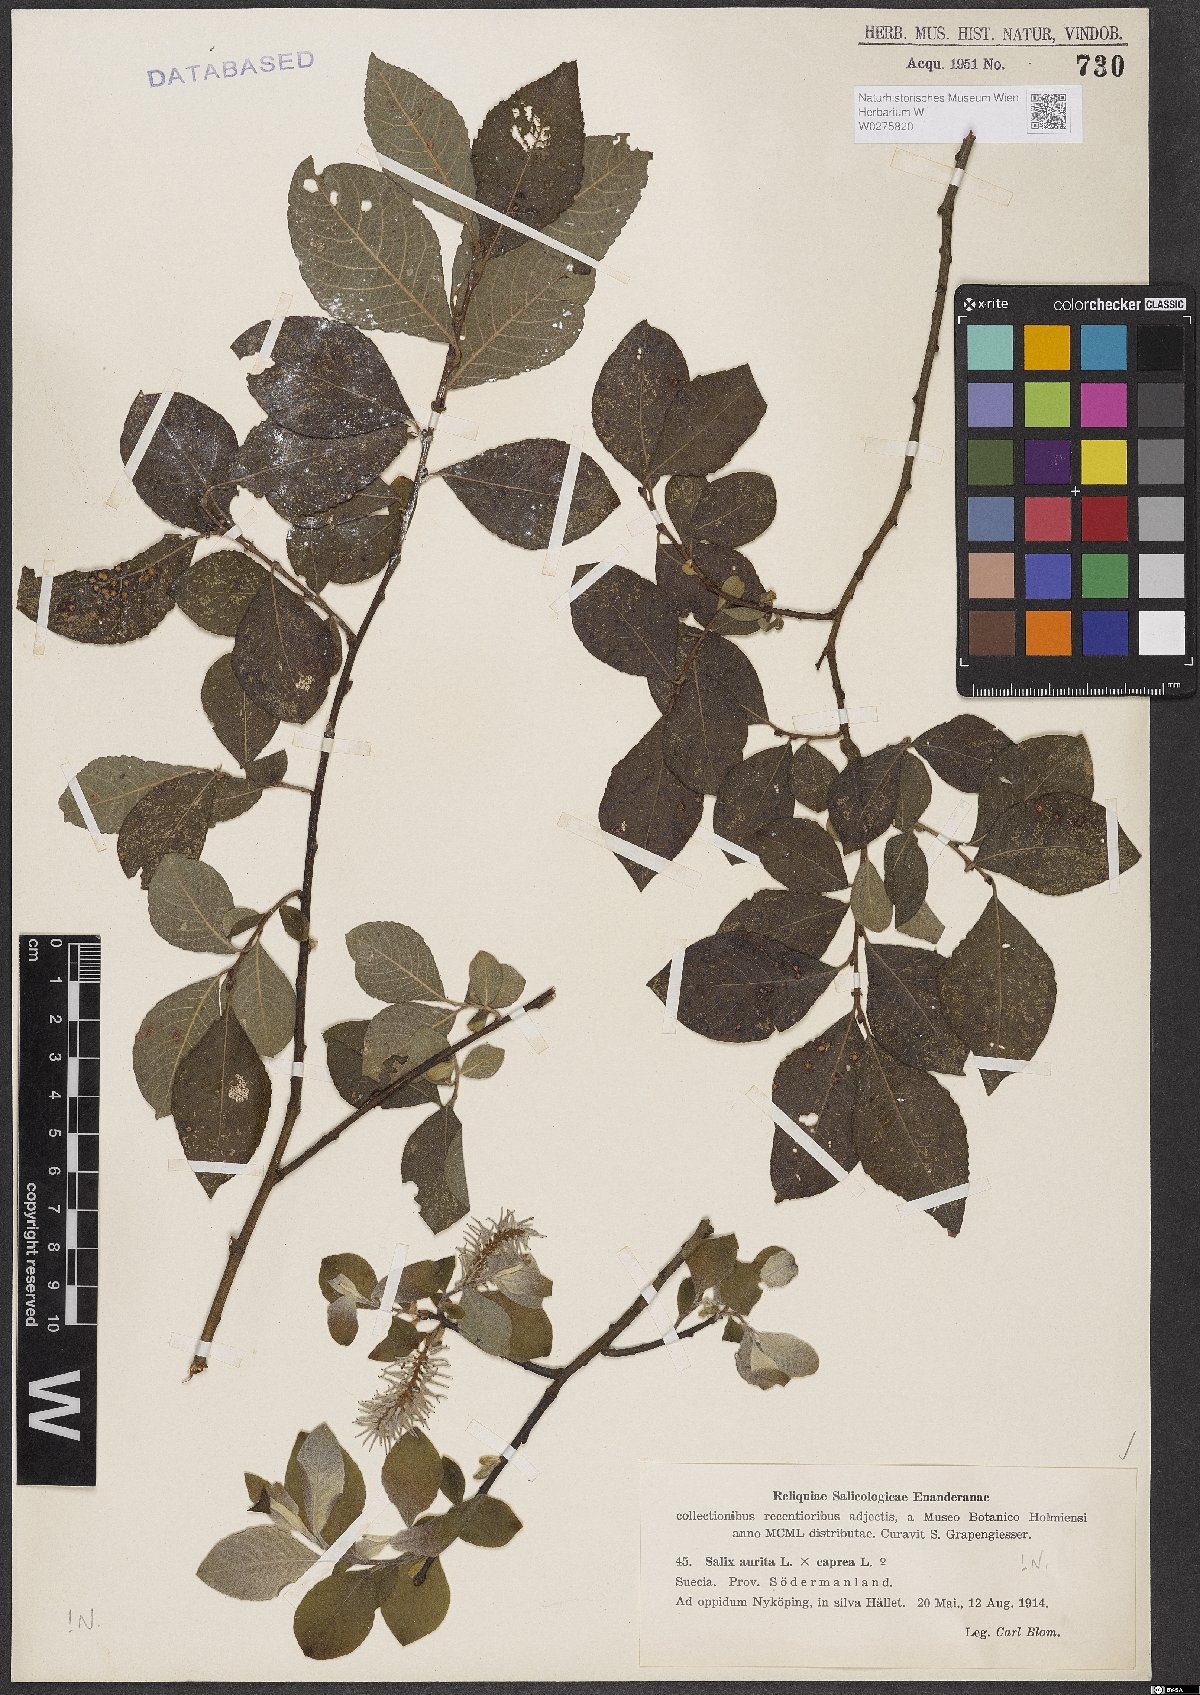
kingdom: Plantae
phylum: Tracheophyta
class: Magnoliopsida
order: Malpighiales
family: Salicaceae
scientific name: Salicaceae
